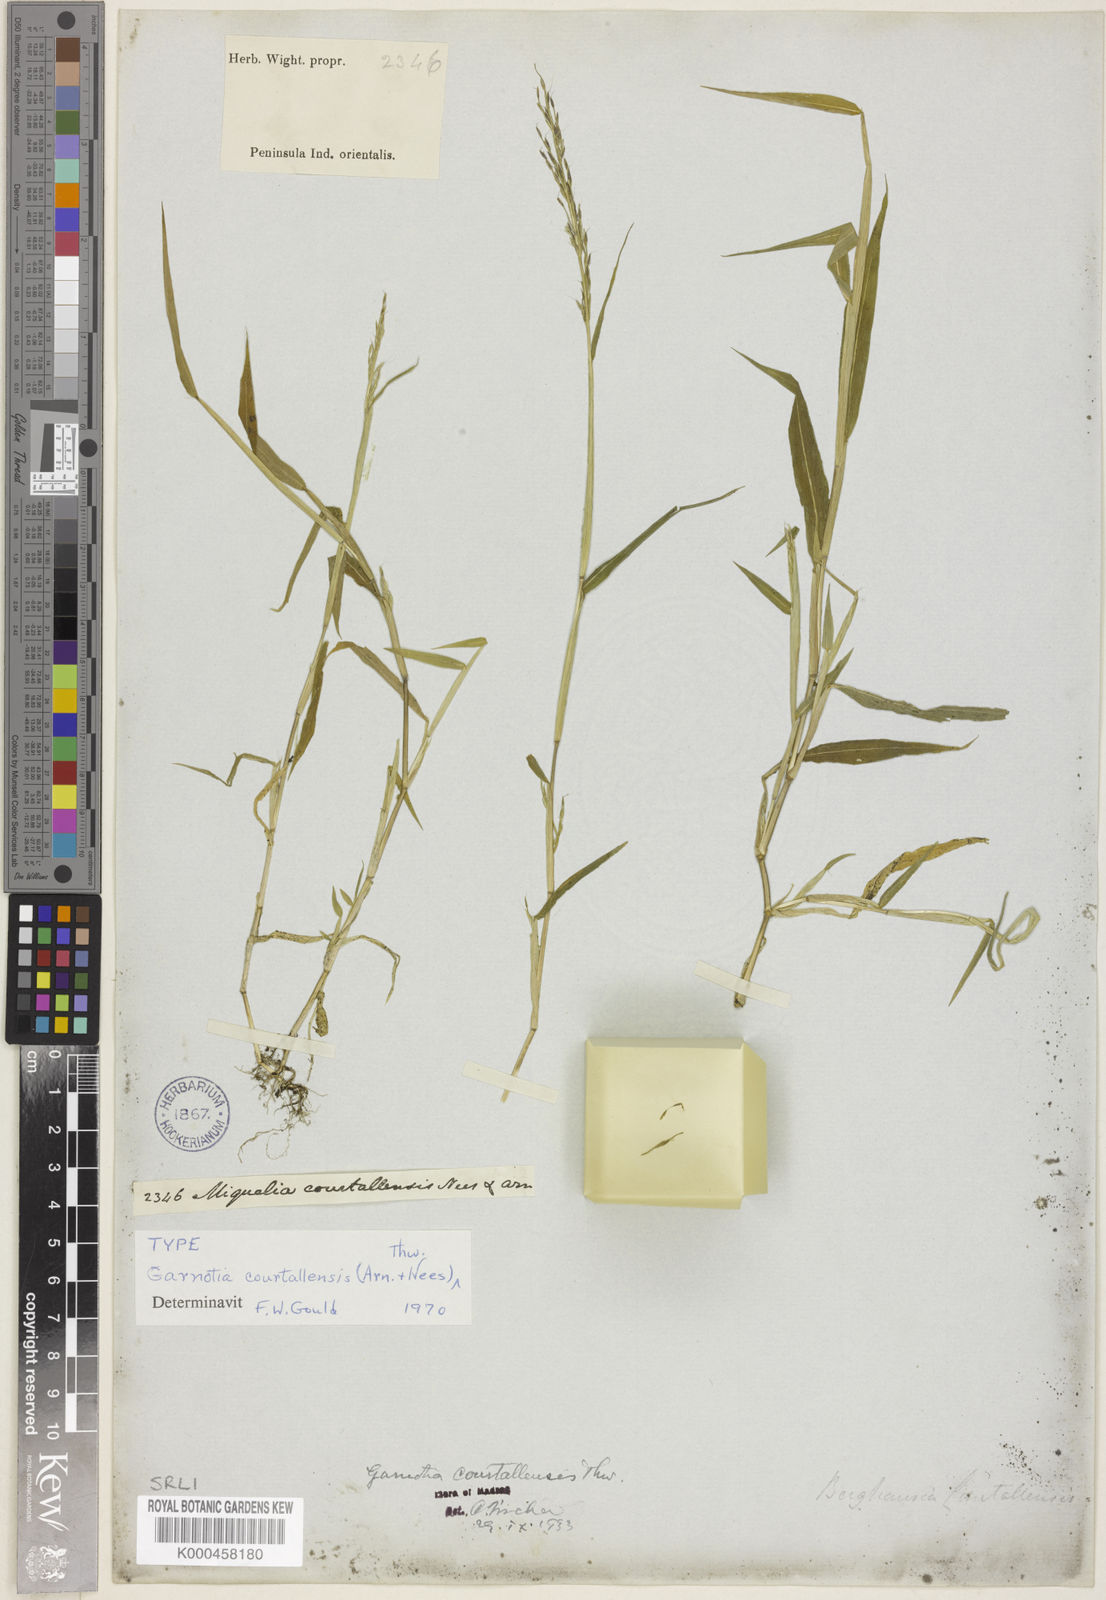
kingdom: Plantae
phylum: Tracheophyta
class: Liliopsida
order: Poales
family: Poaceae
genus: Garnotia
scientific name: Garnotia courtallensis
